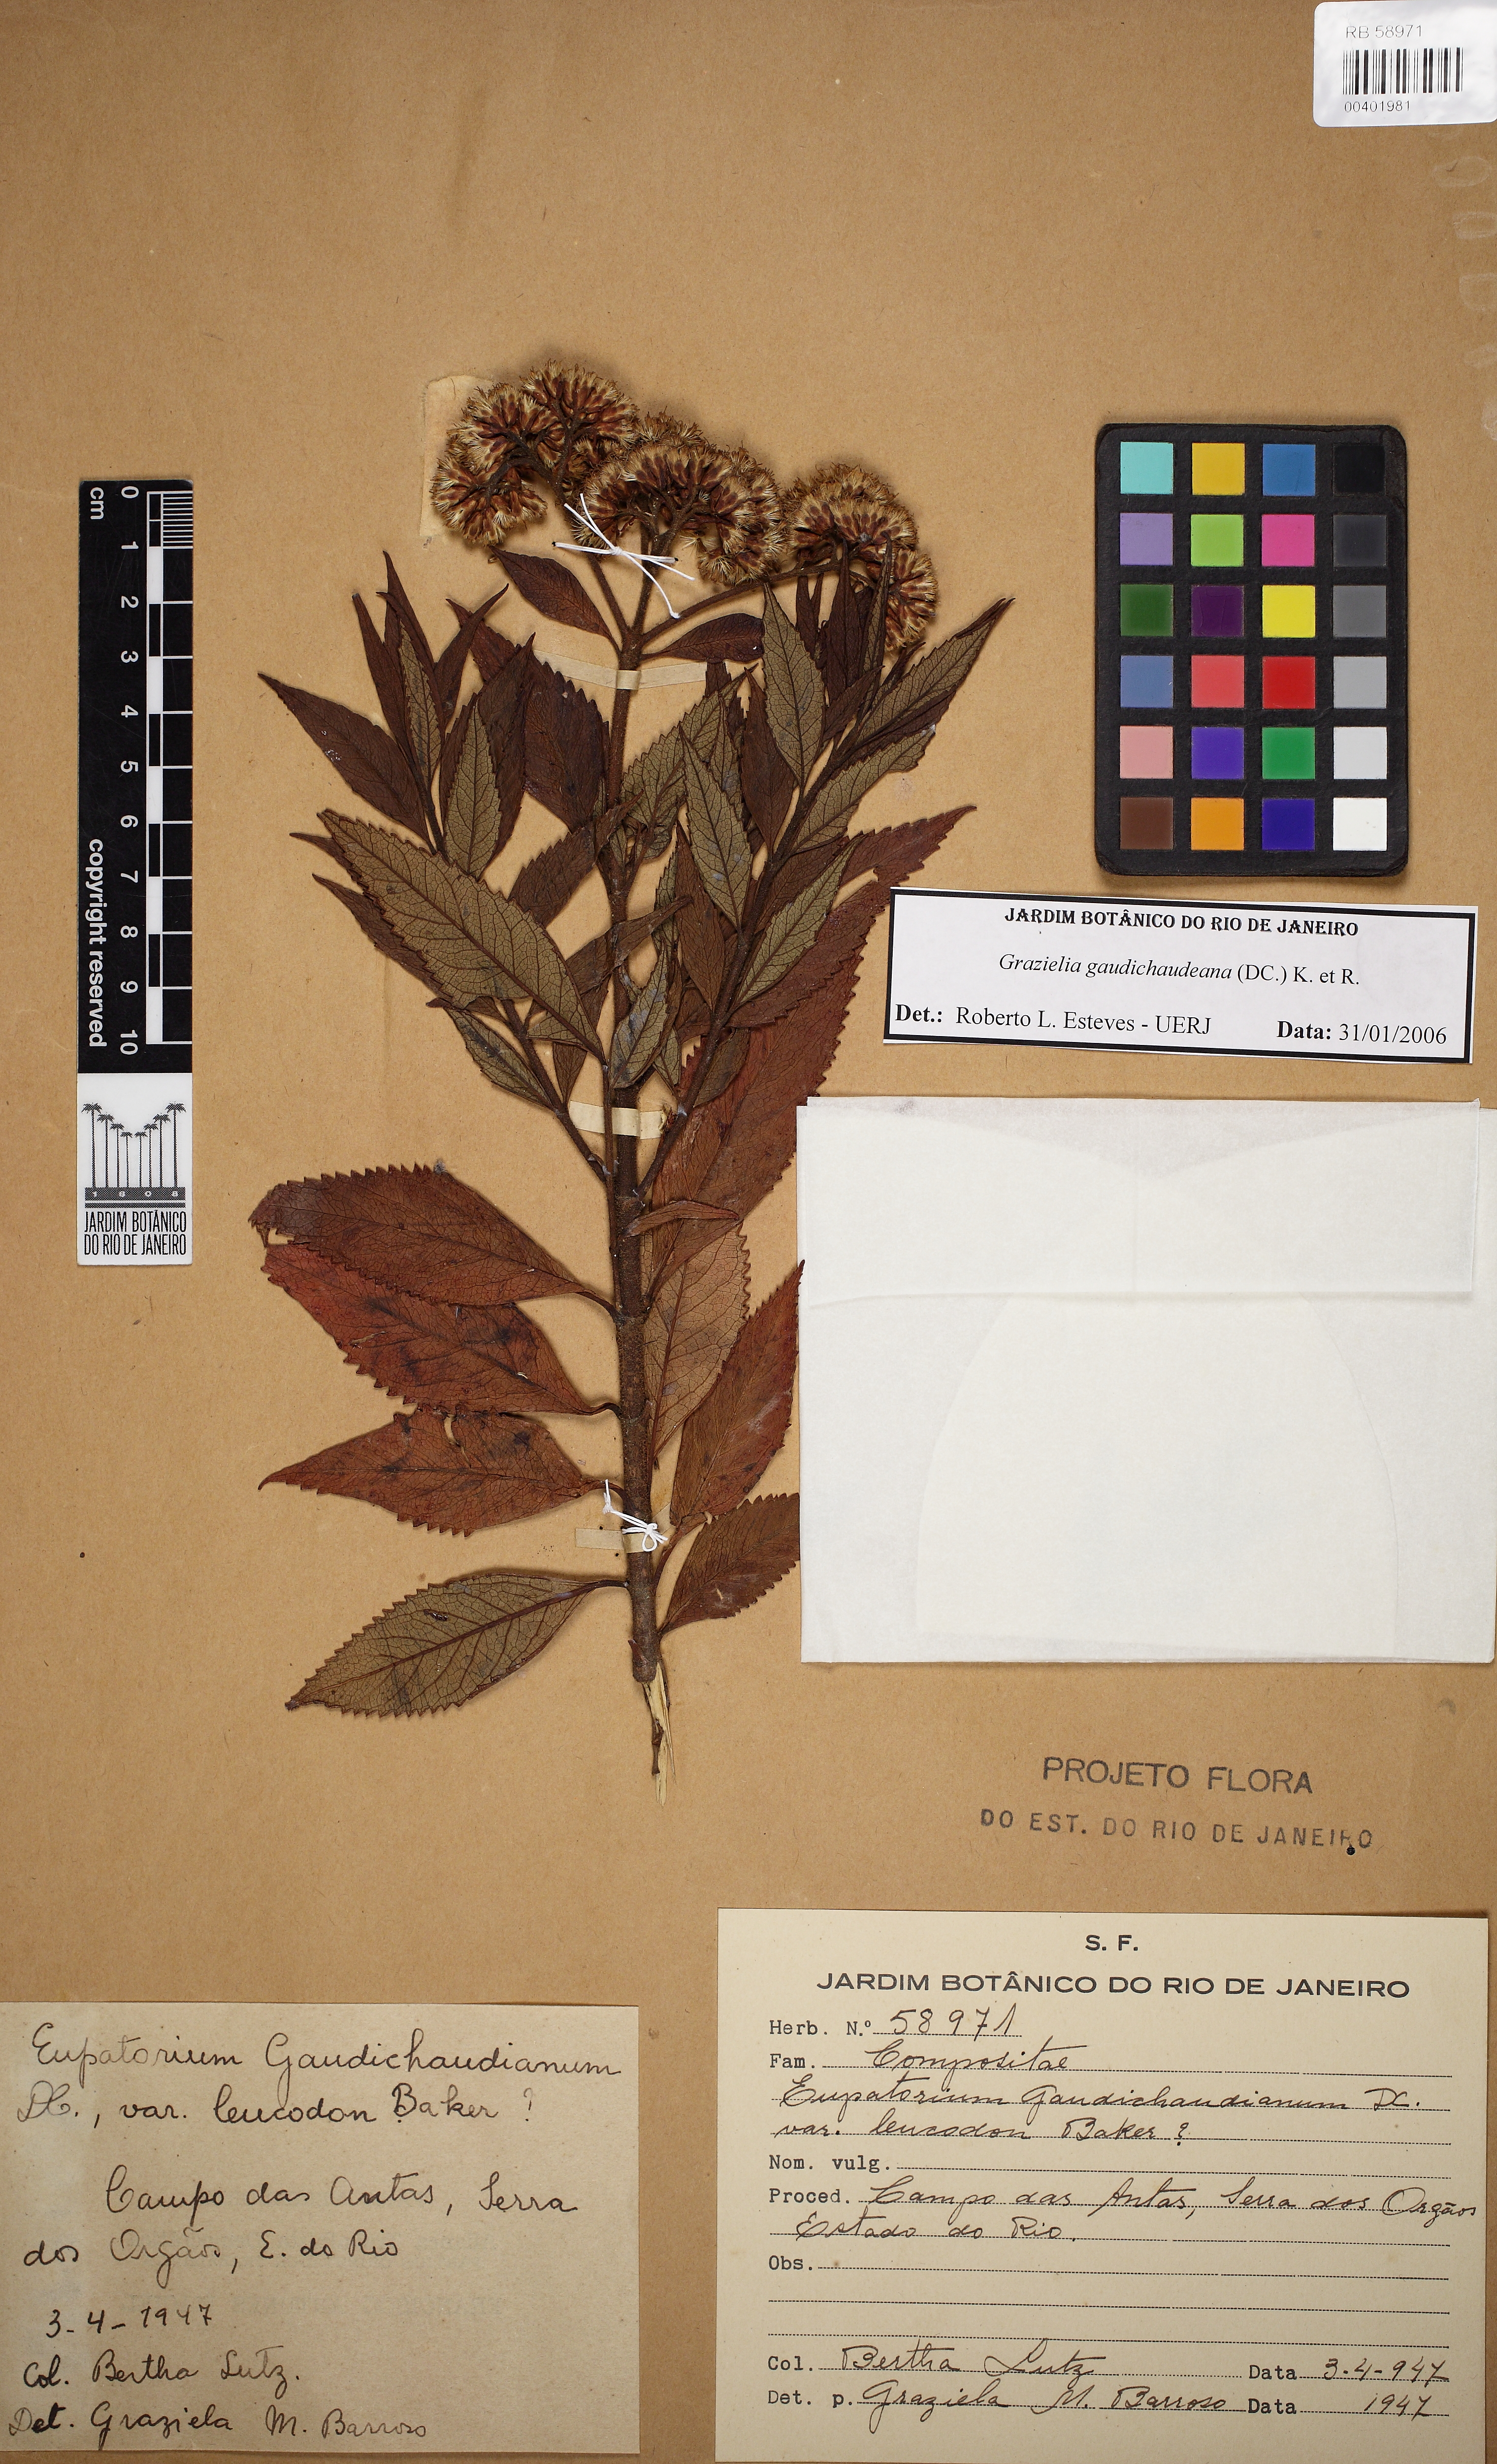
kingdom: Plantae
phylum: Tracheophyta
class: Magnoliopsida
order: Asterales
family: Asteraceae
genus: Grazielia
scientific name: Grazielia gaudichaudiana
